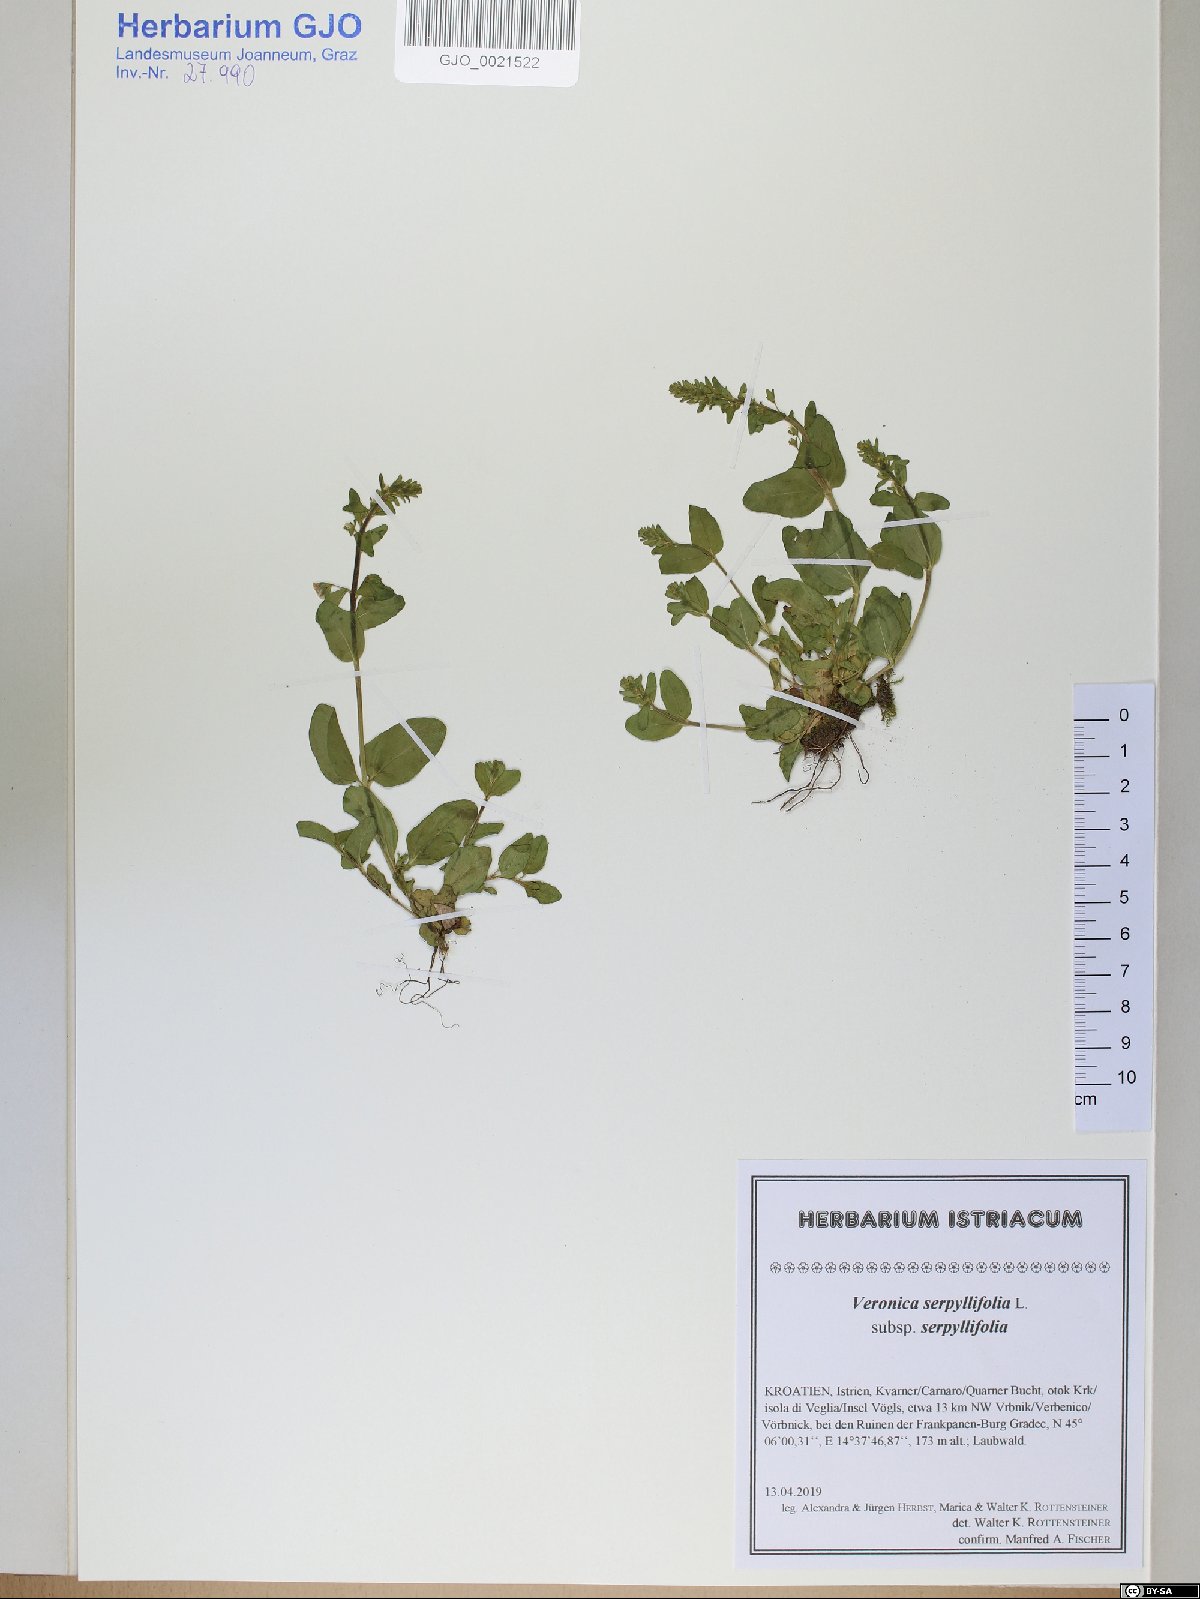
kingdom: Plantae
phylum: Tracheophyta
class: Magnoliopsida
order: Lamiales
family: Plantaginaceae
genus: Veronica
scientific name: Veronica serpyllifolia
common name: Thyme-leaved speedwell
